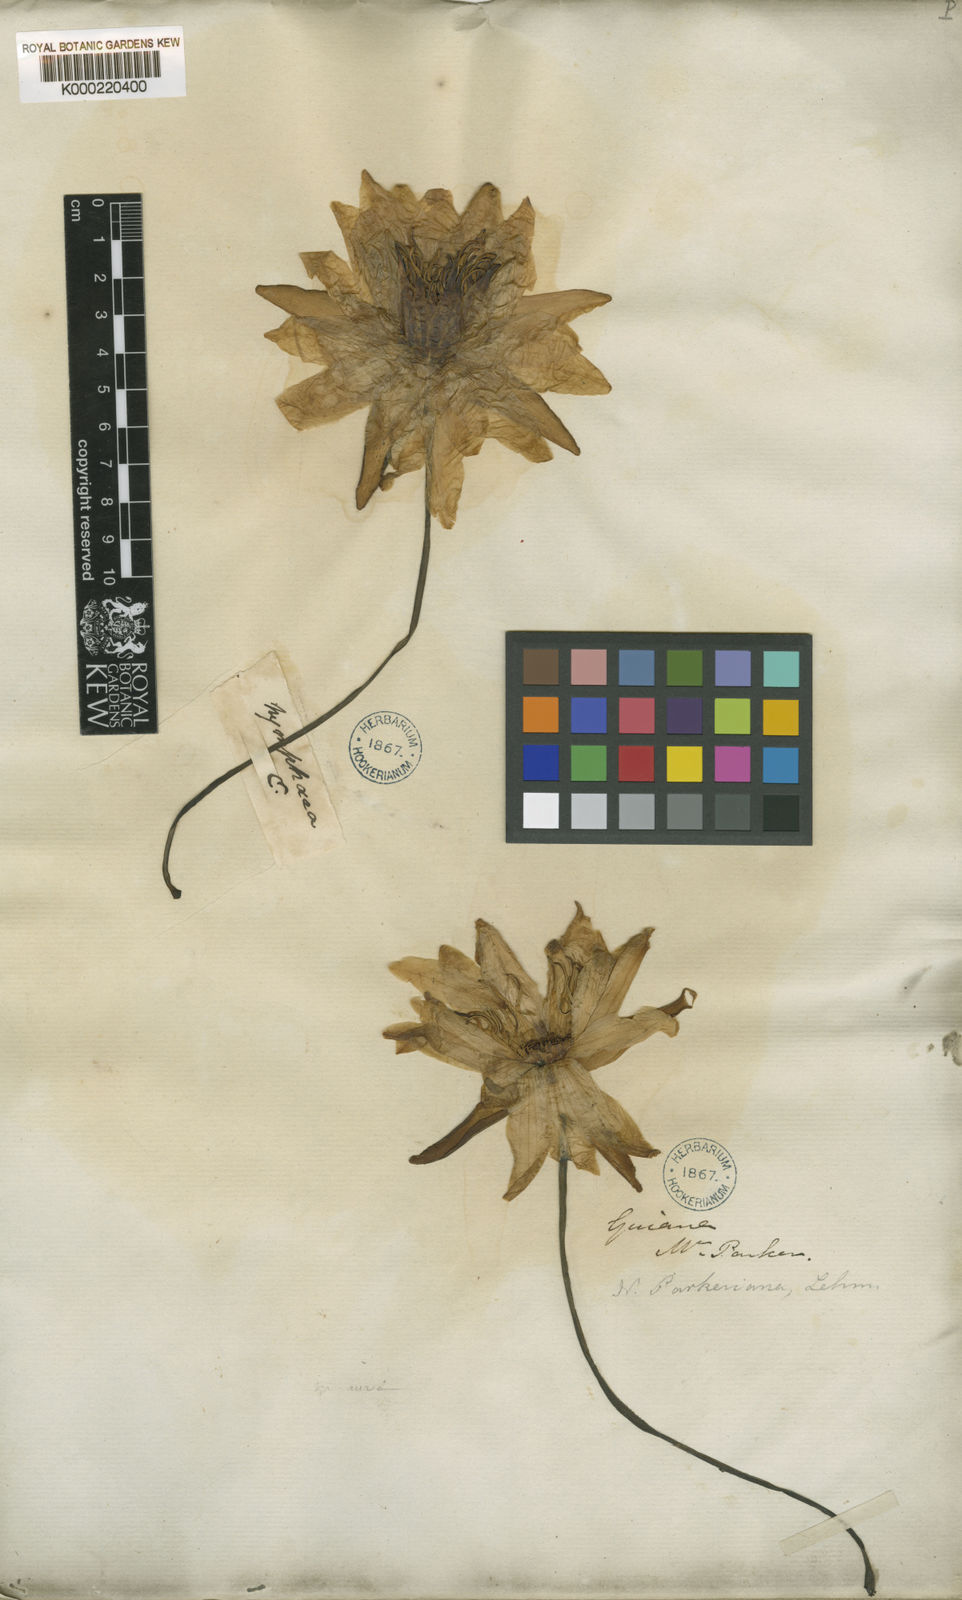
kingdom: Plantae
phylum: Tracheophyta
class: Magnoliopsida
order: Nymphaeales
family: Nymphaeaceae
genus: Nymphaea
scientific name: Nymphaea odorata
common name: Fragrant water-lily
